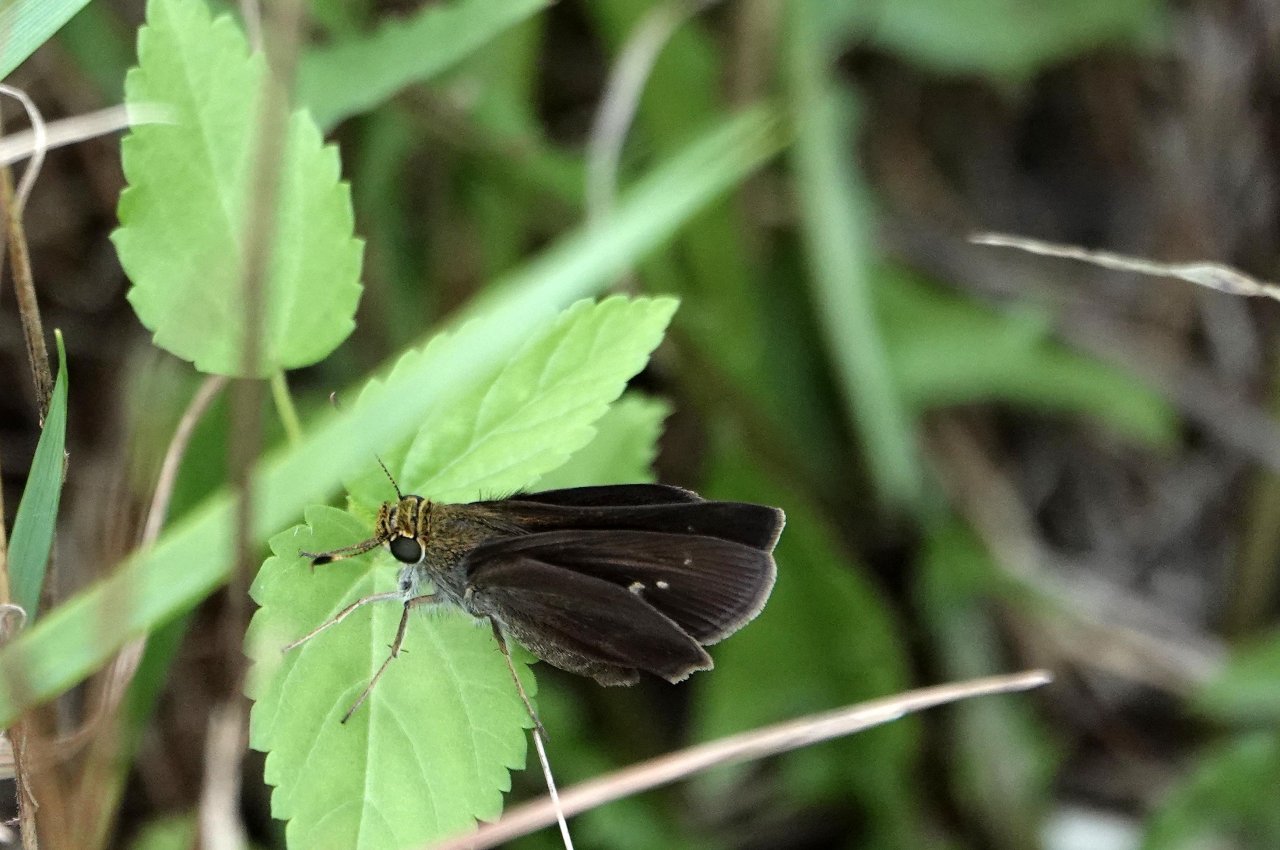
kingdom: Animalia
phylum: Arthropoda
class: Insecta
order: Lepidoptera
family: Hesperiidae
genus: Euphyes
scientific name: Euphyes vestris
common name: Dun Skipper
